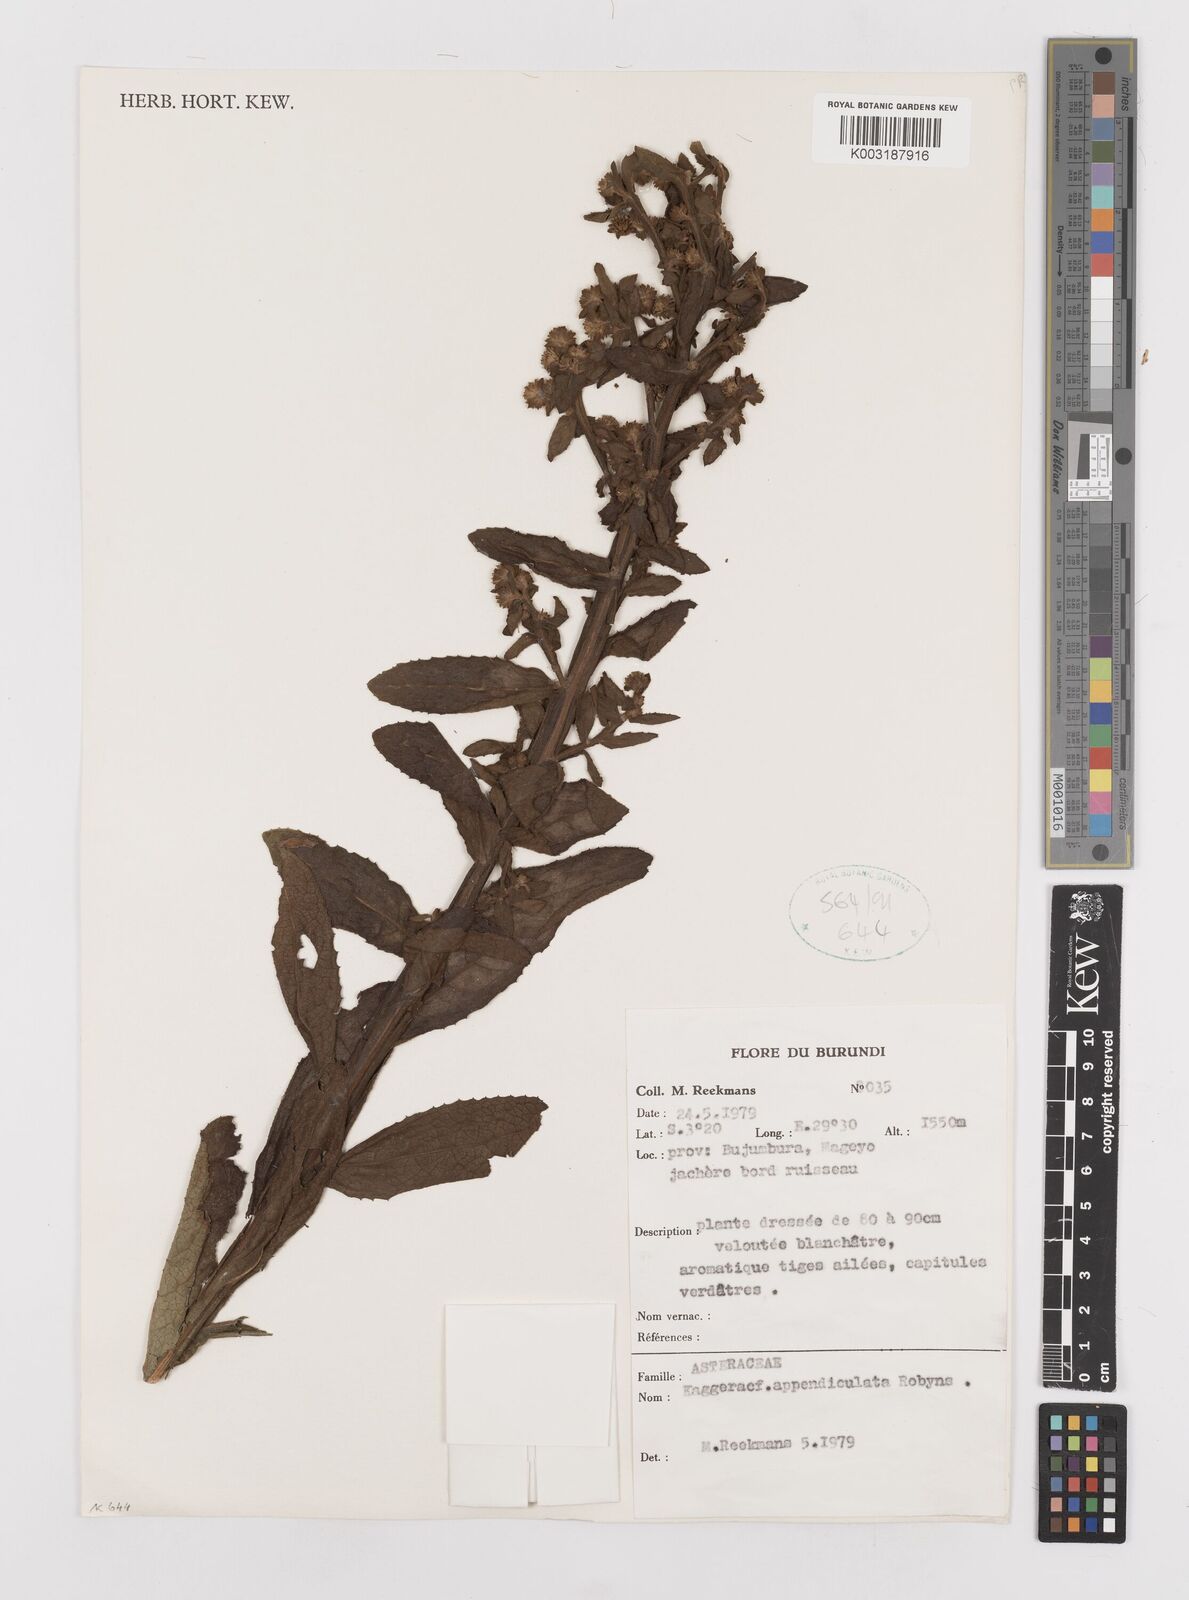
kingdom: Plantae
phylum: Tracheophyta
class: Magnoliopsida
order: Asterales
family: Asteraceae
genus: Laggera
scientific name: Laggera brevipes
